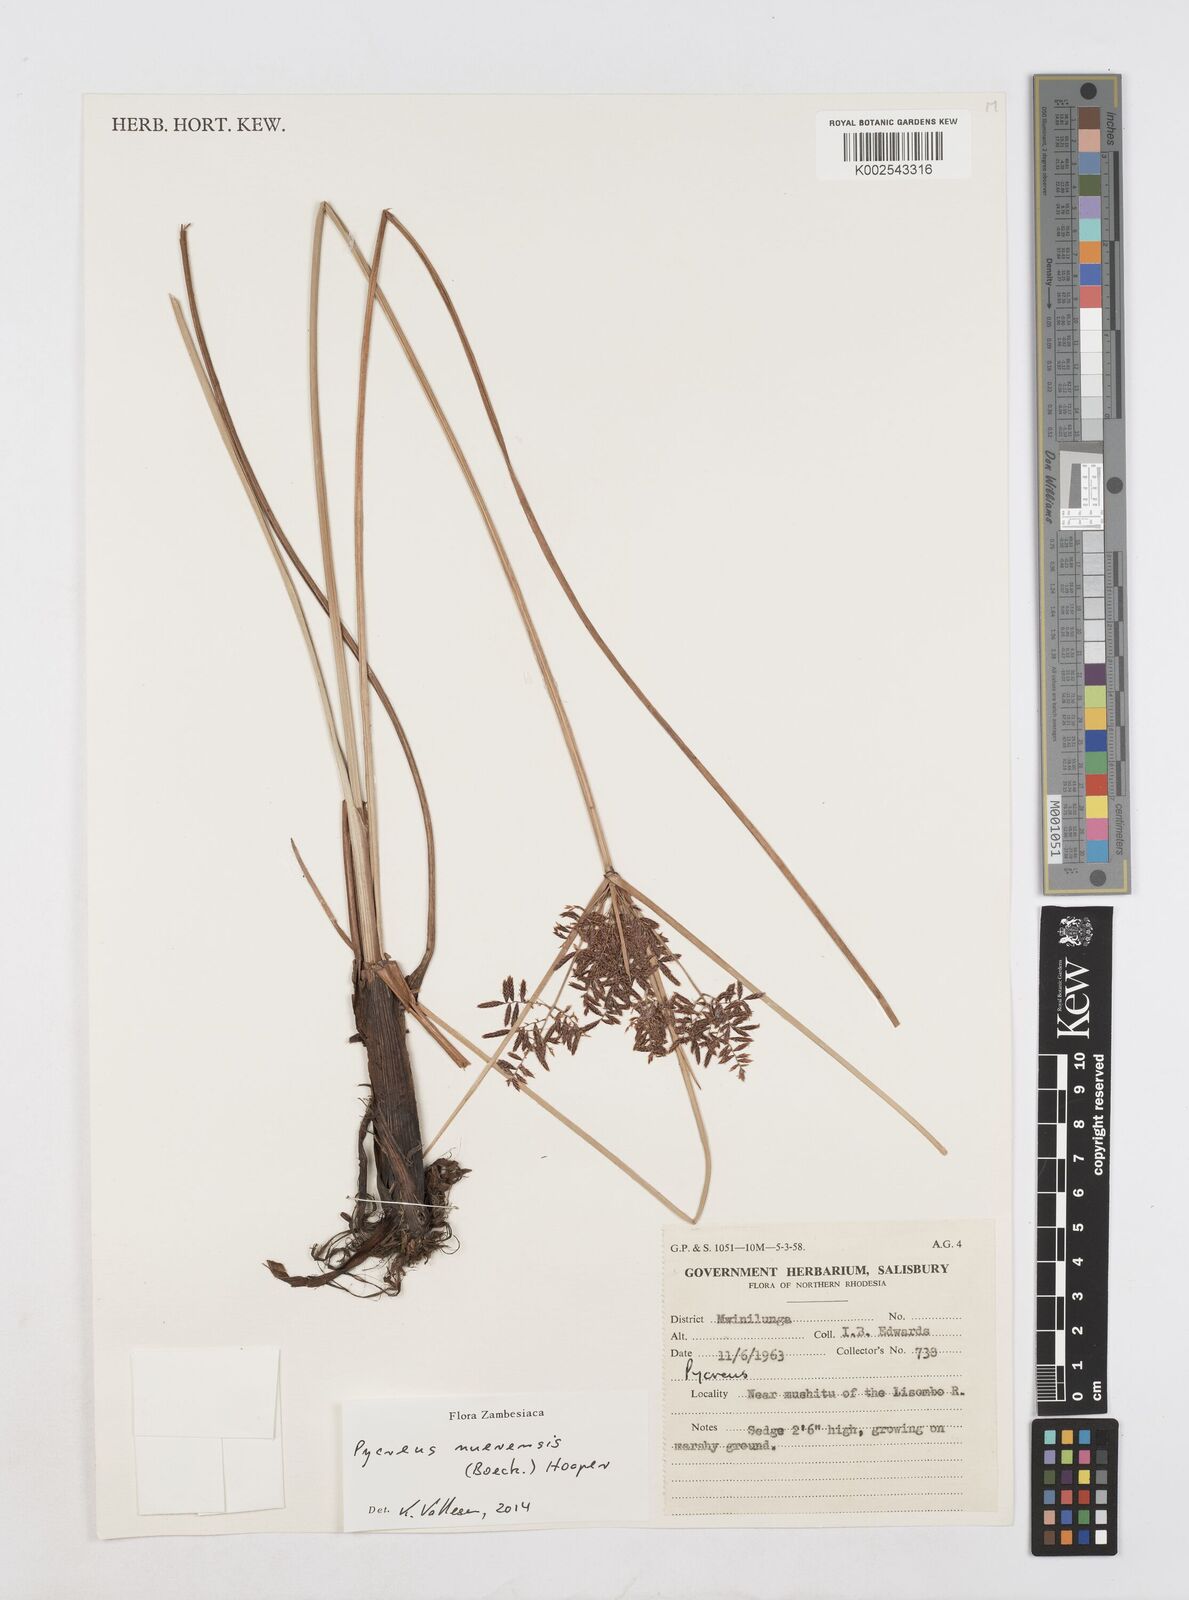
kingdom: Plantae
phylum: Tracheophyta
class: Liliopsida
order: Poales
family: Cyperaceae
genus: Cyperus
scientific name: Cyperus nuerensis
